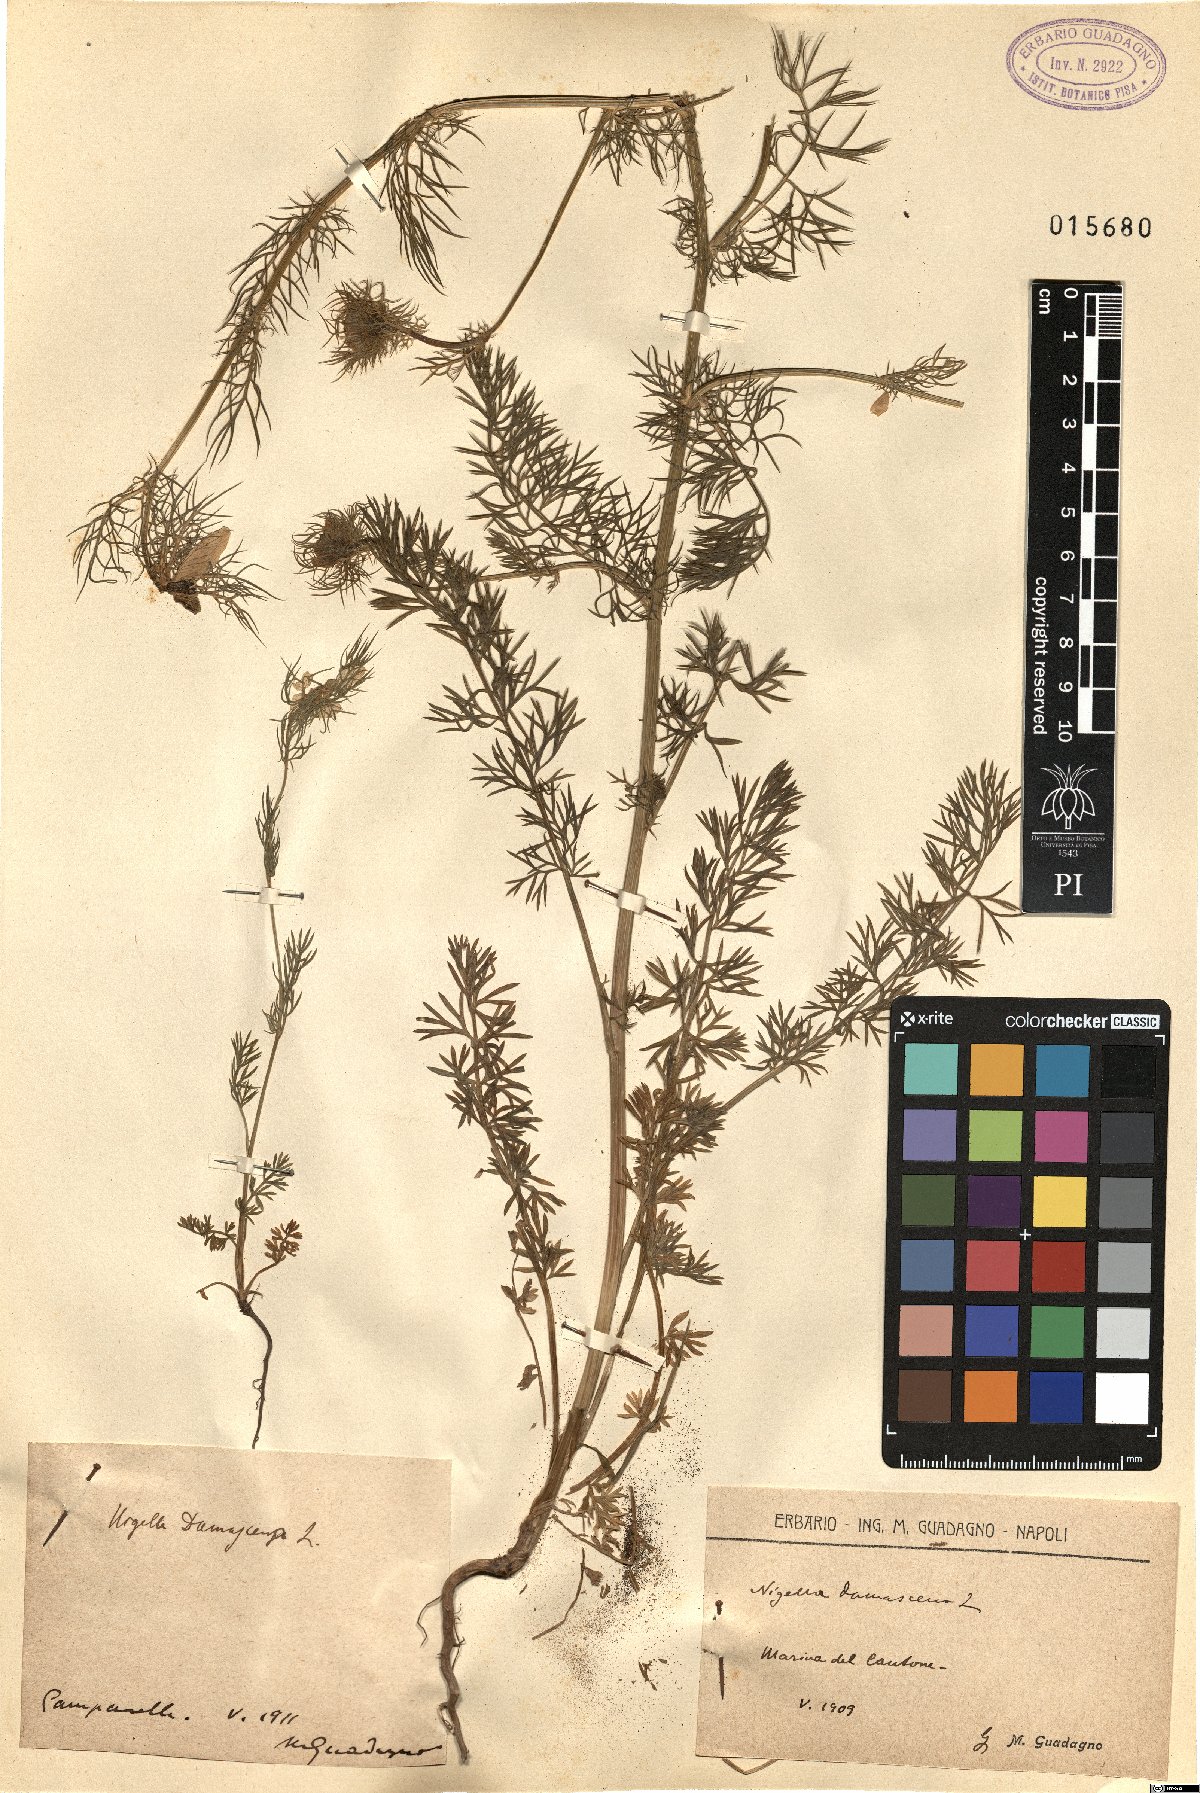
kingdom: Plantae
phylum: Tracheophyta
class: Magnoliopsida
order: Ranunculales
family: Ranunculaceae
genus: Nigella
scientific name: Nigella damascena
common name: Love-in-a-mist
